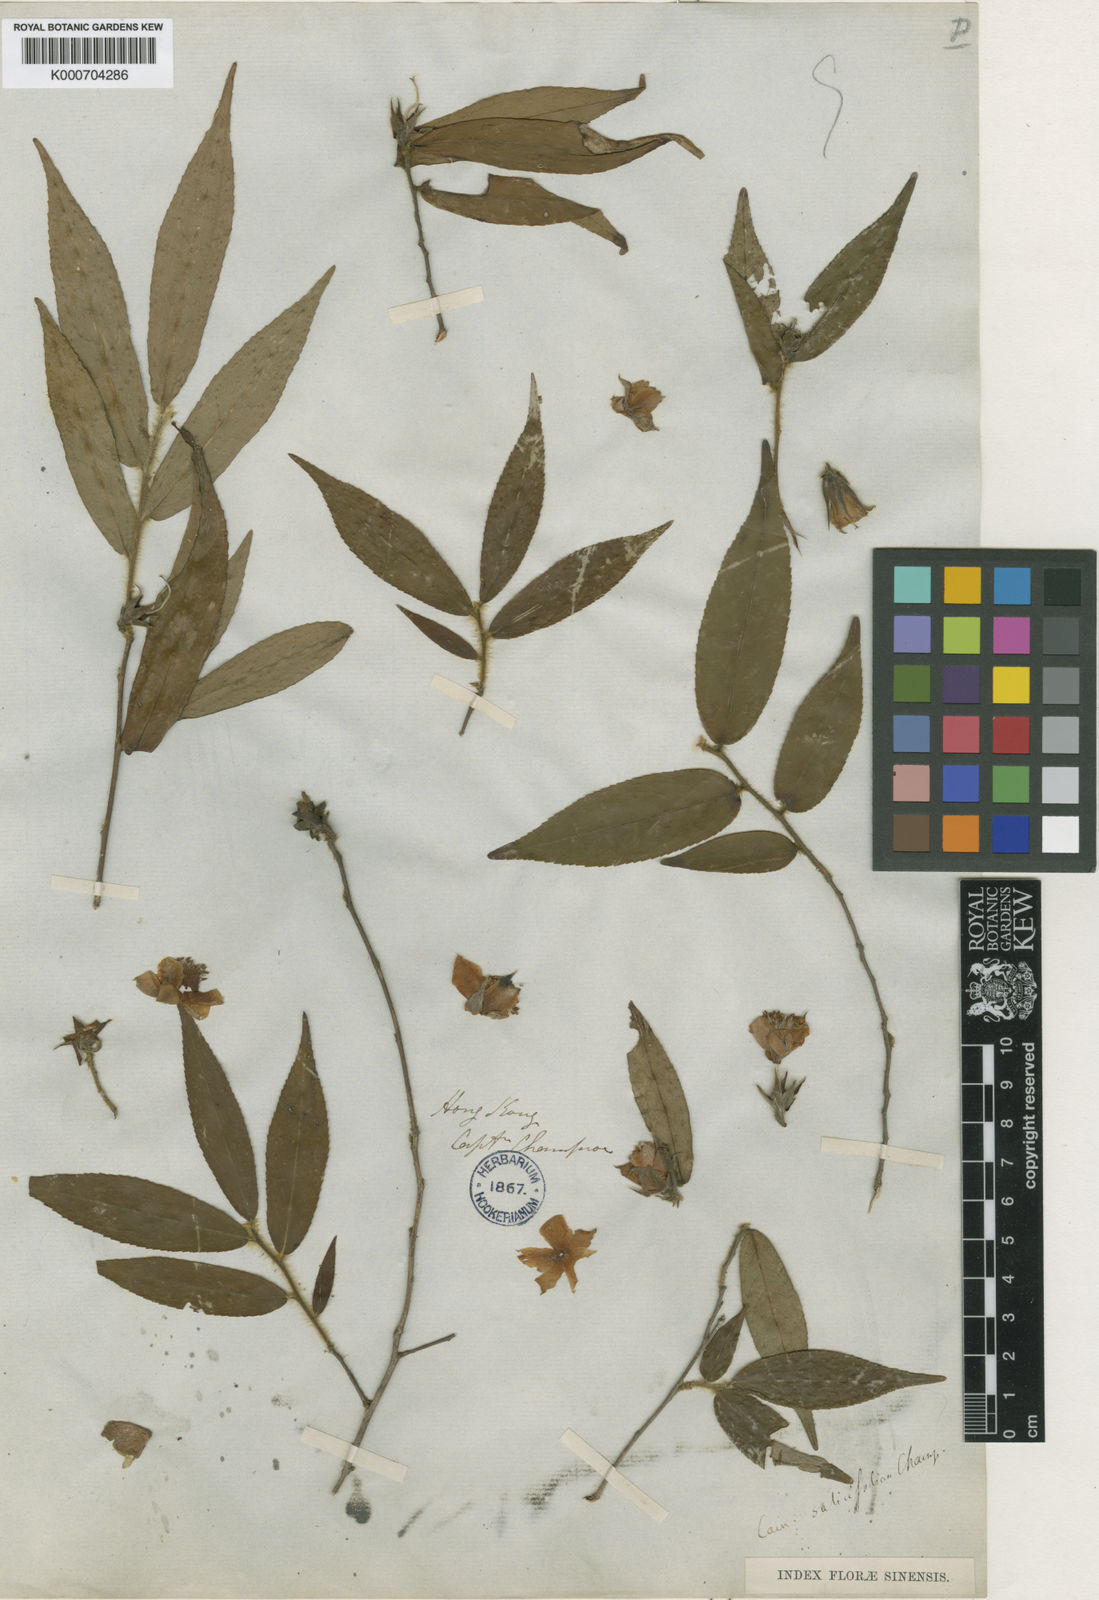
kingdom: Plantae
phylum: Tracheophyta
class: Magnoliopsida
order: Ericales
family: Theaceae
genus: Camellia
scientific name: Camellia
